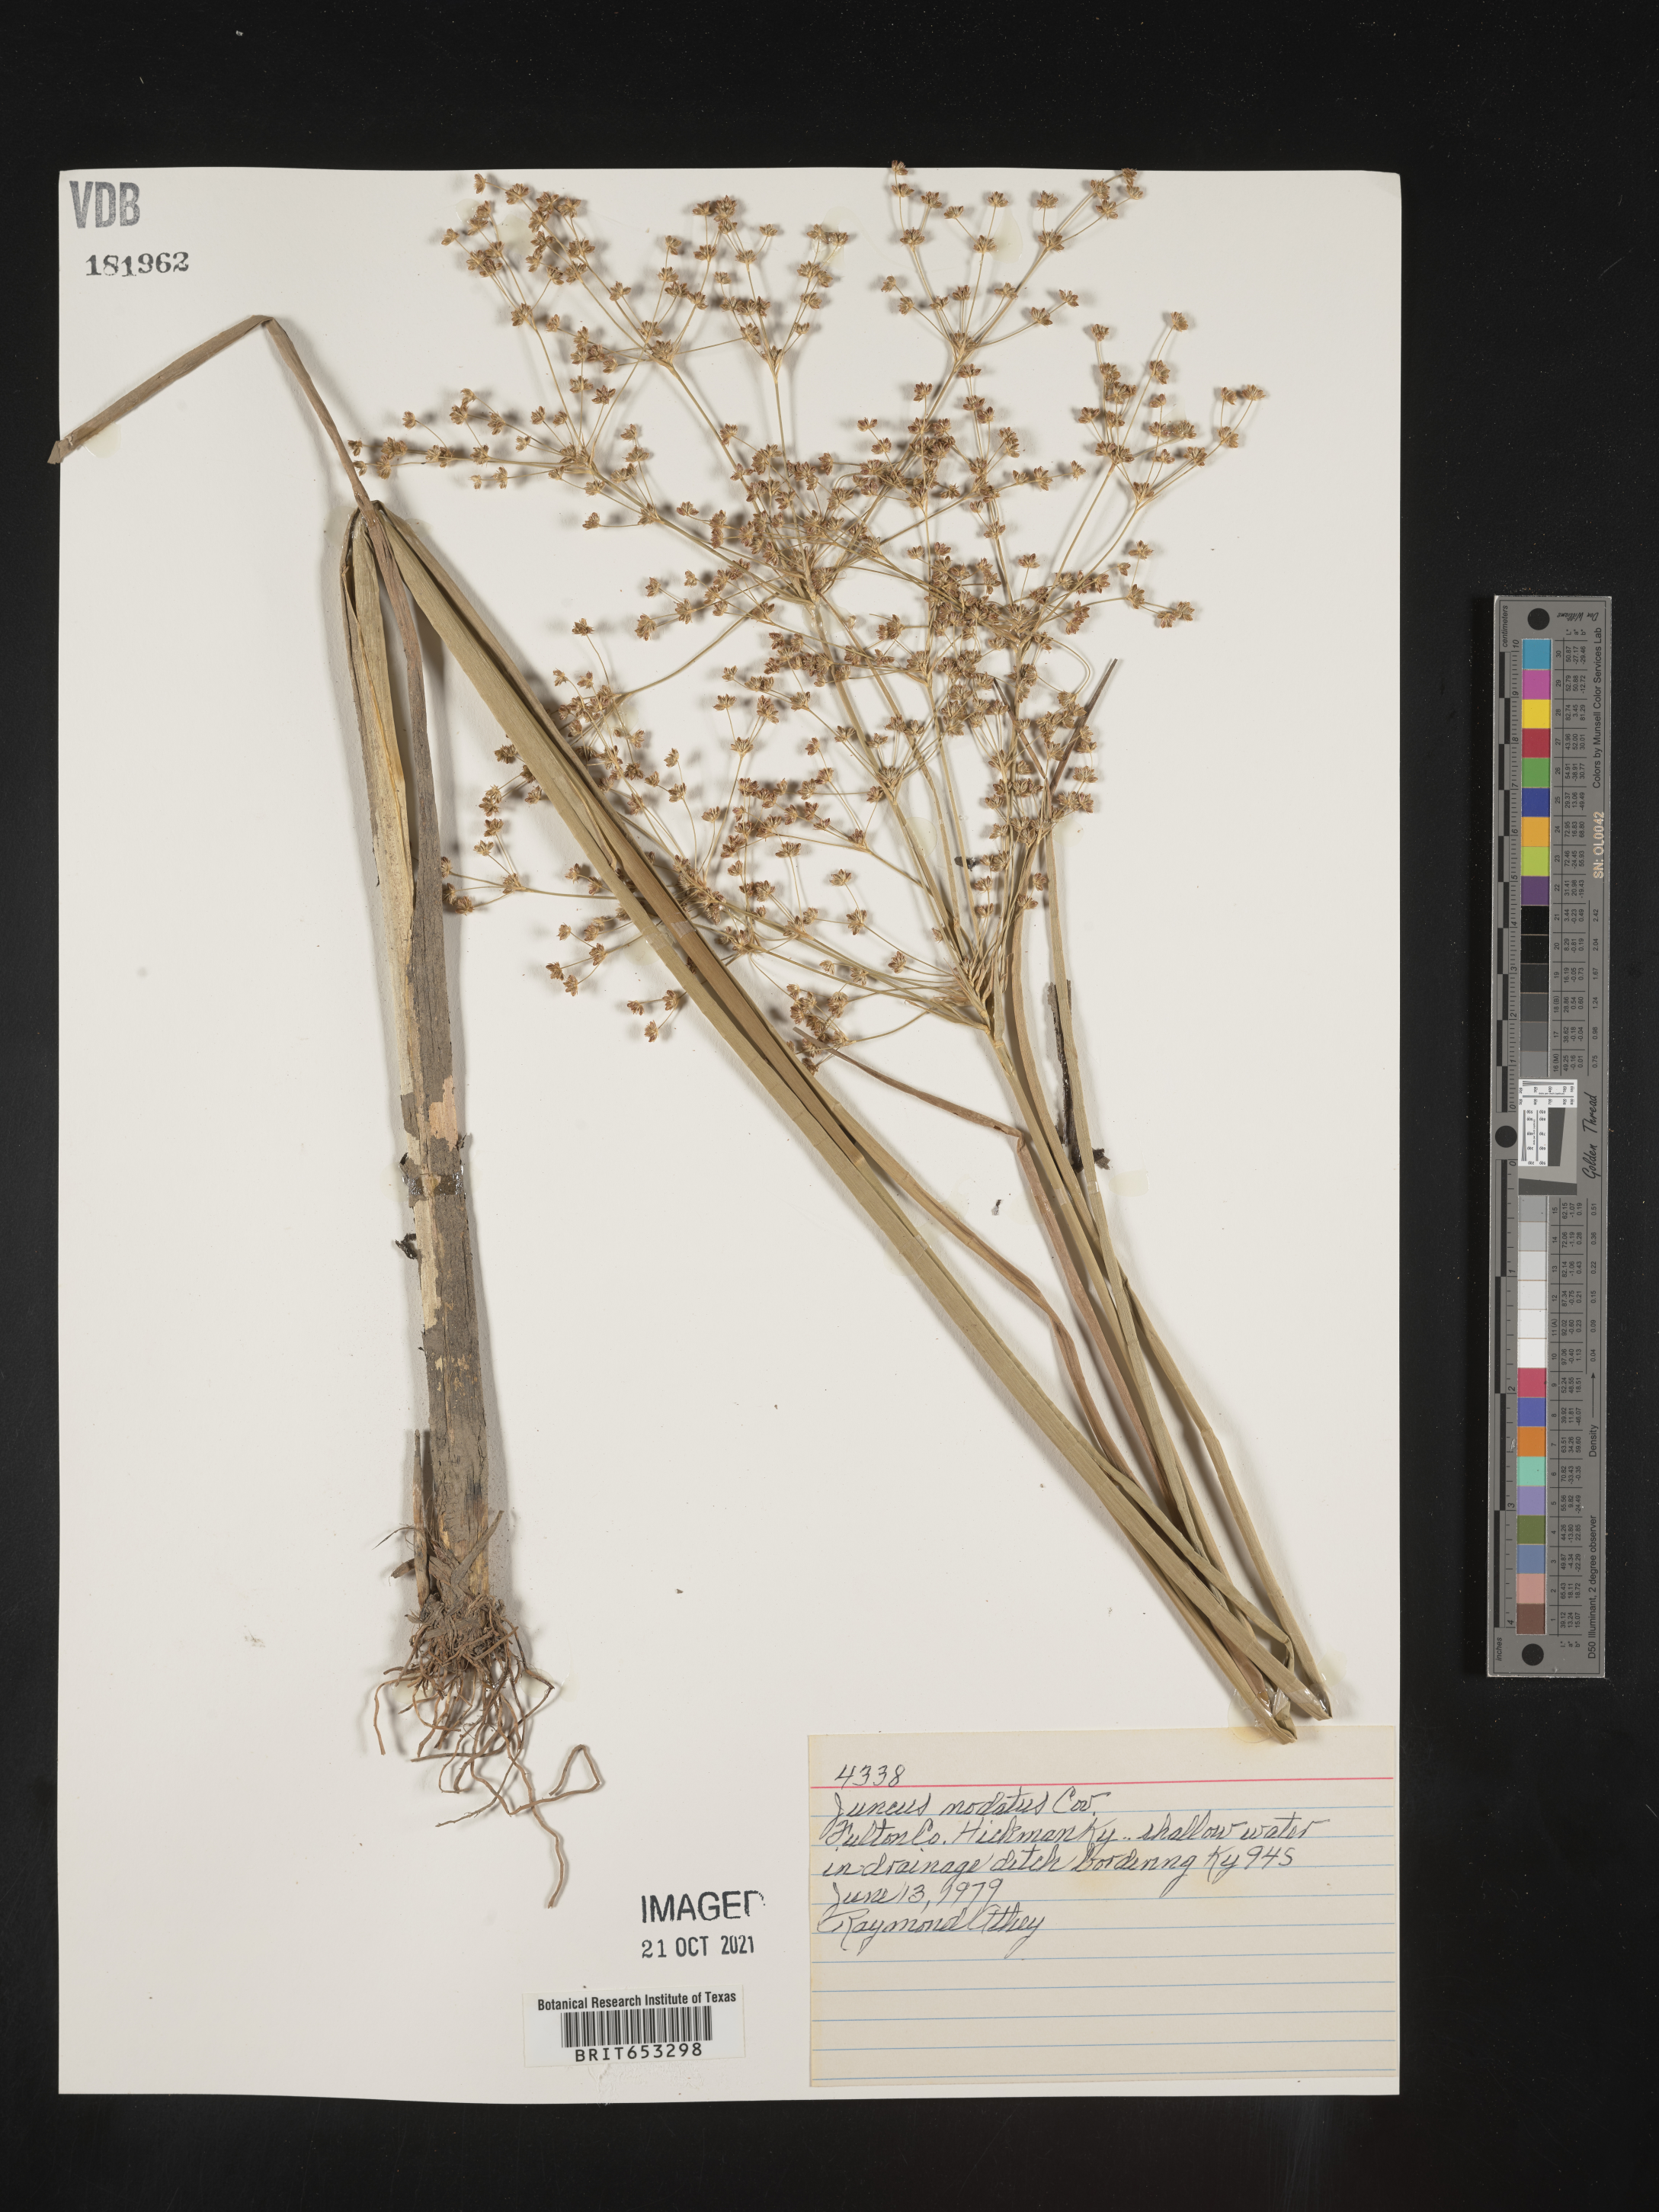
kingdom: Plantae
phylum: Tracheophyta
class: Liliopsida
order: Poales
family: Juncaceae
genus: Juncus
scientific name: Juncus nodatus
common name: Stout rush
